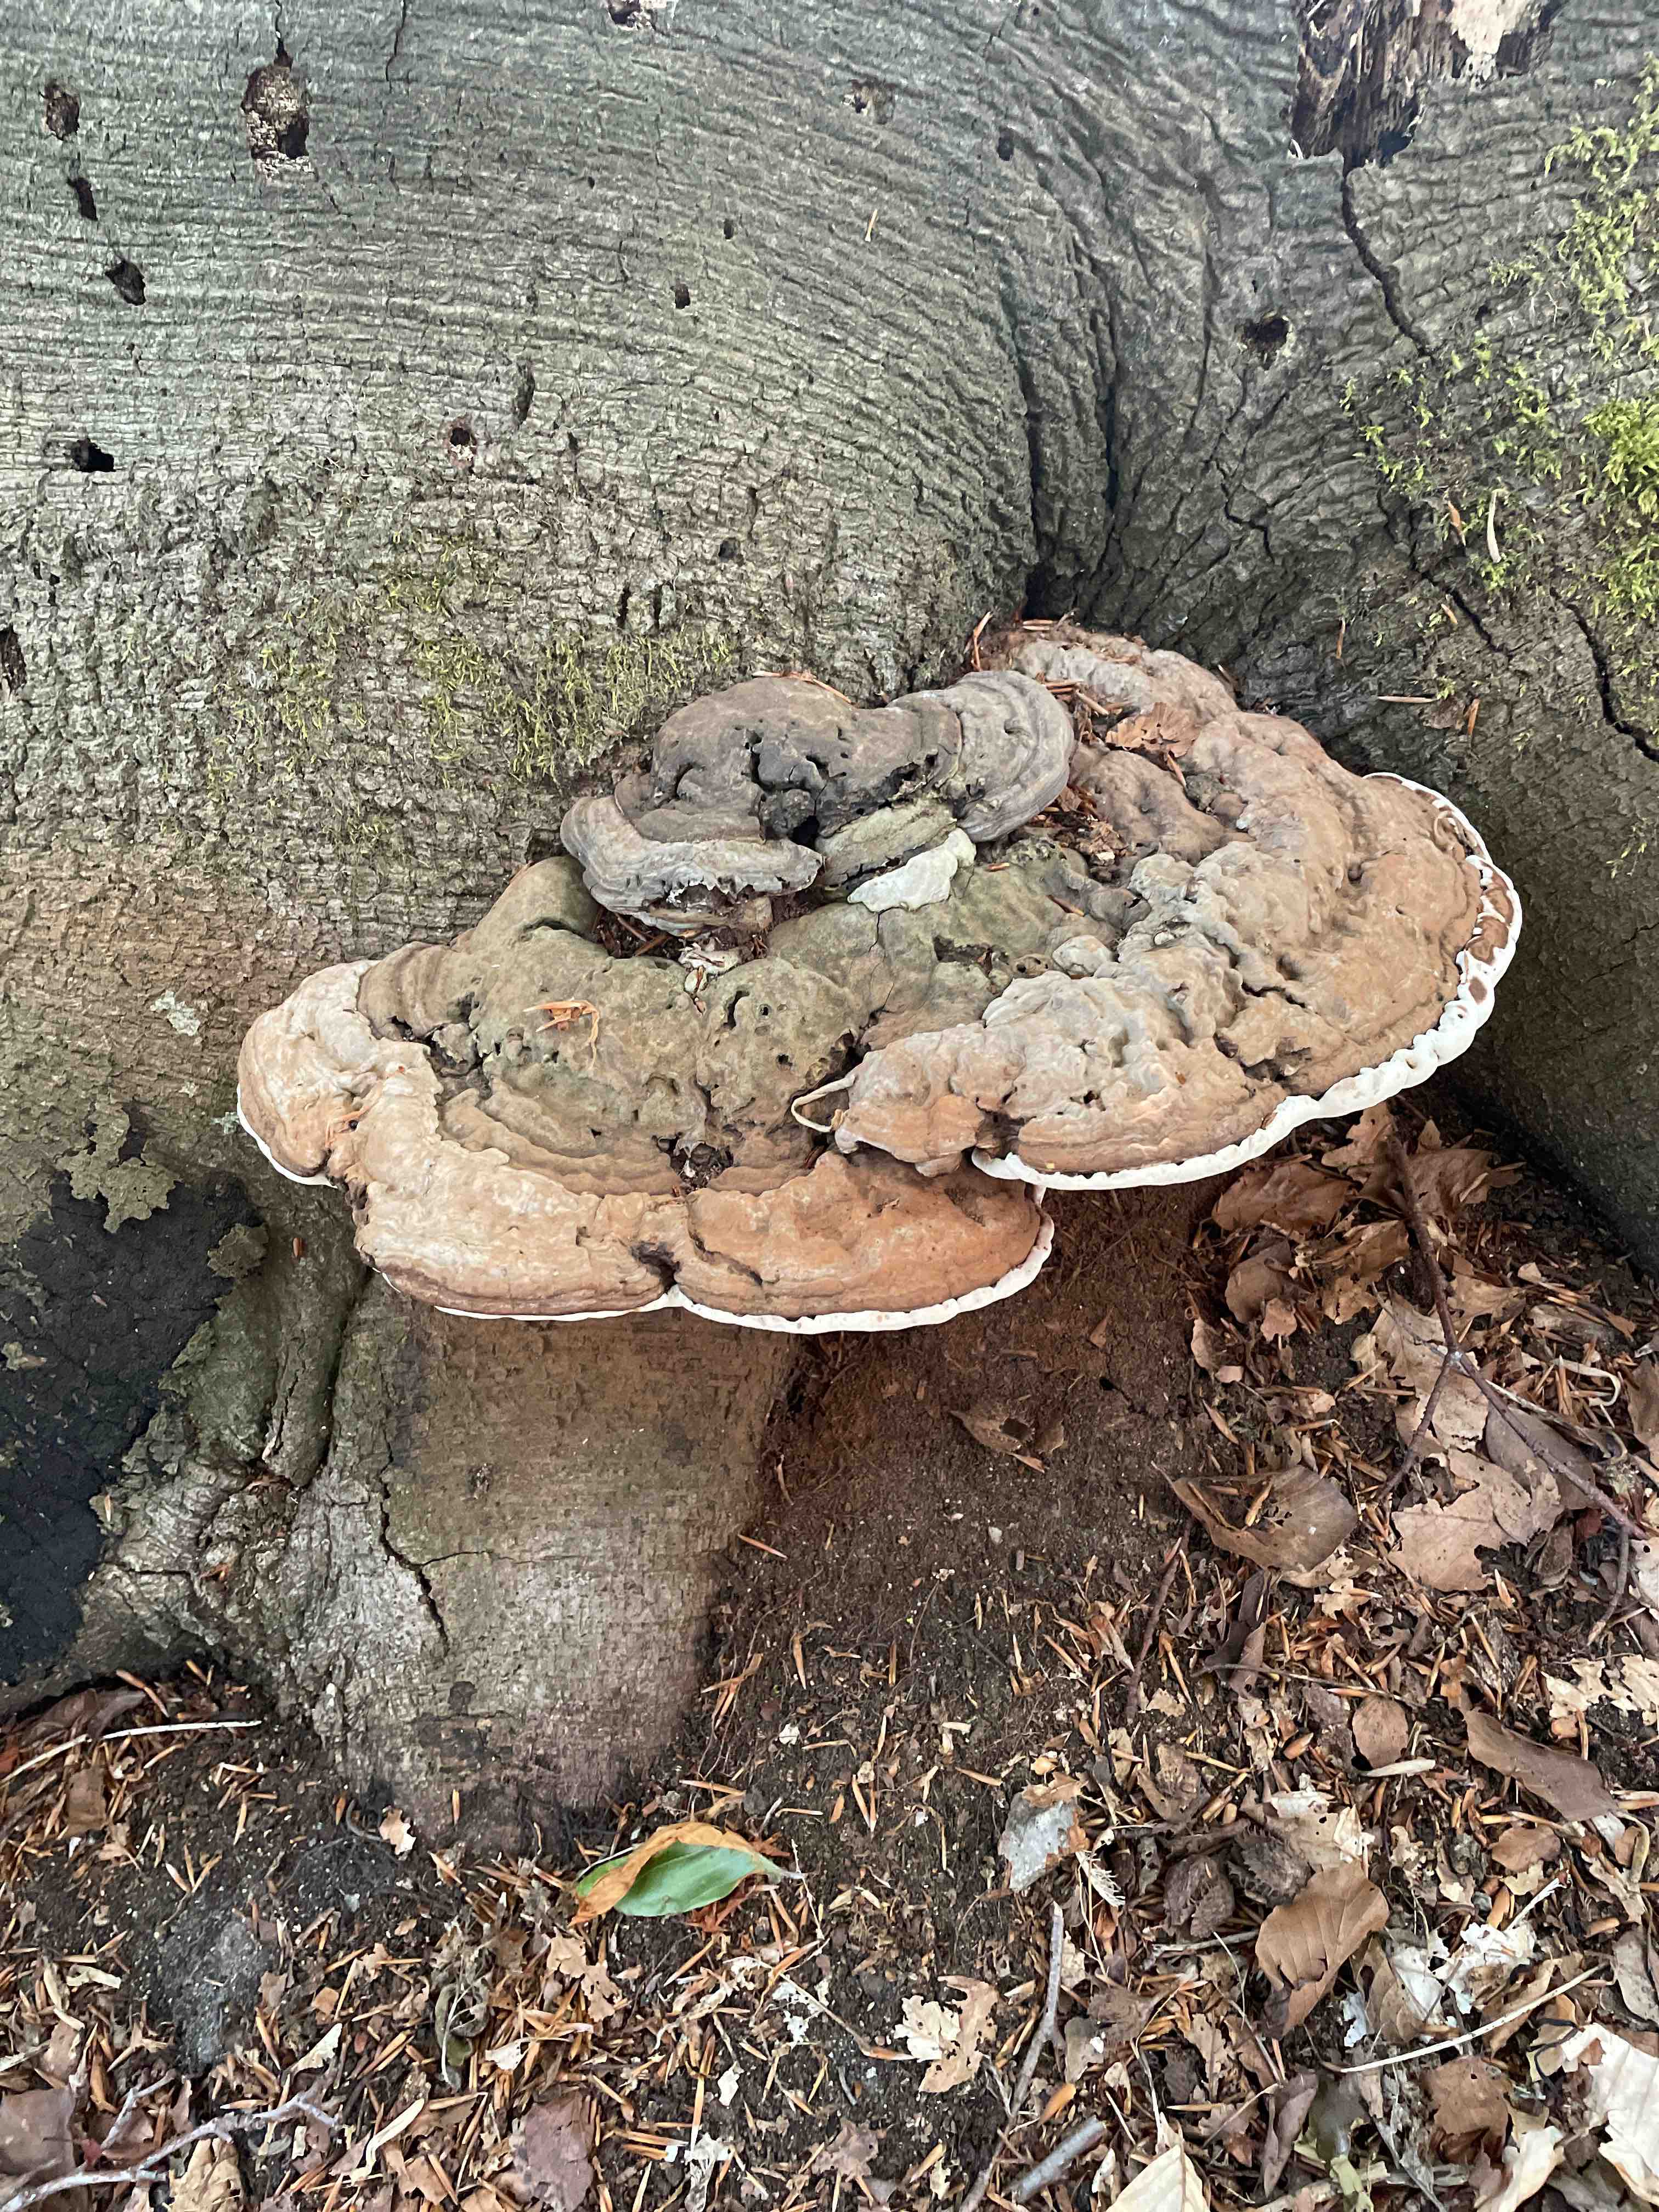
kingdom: Fungi
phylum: Basidiomycota
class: Agaricomycetes
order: Polyporales
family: Polyporaceae
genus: Ganoderma
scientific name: Ganoderma applanatum
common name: flad lakporesvamp
